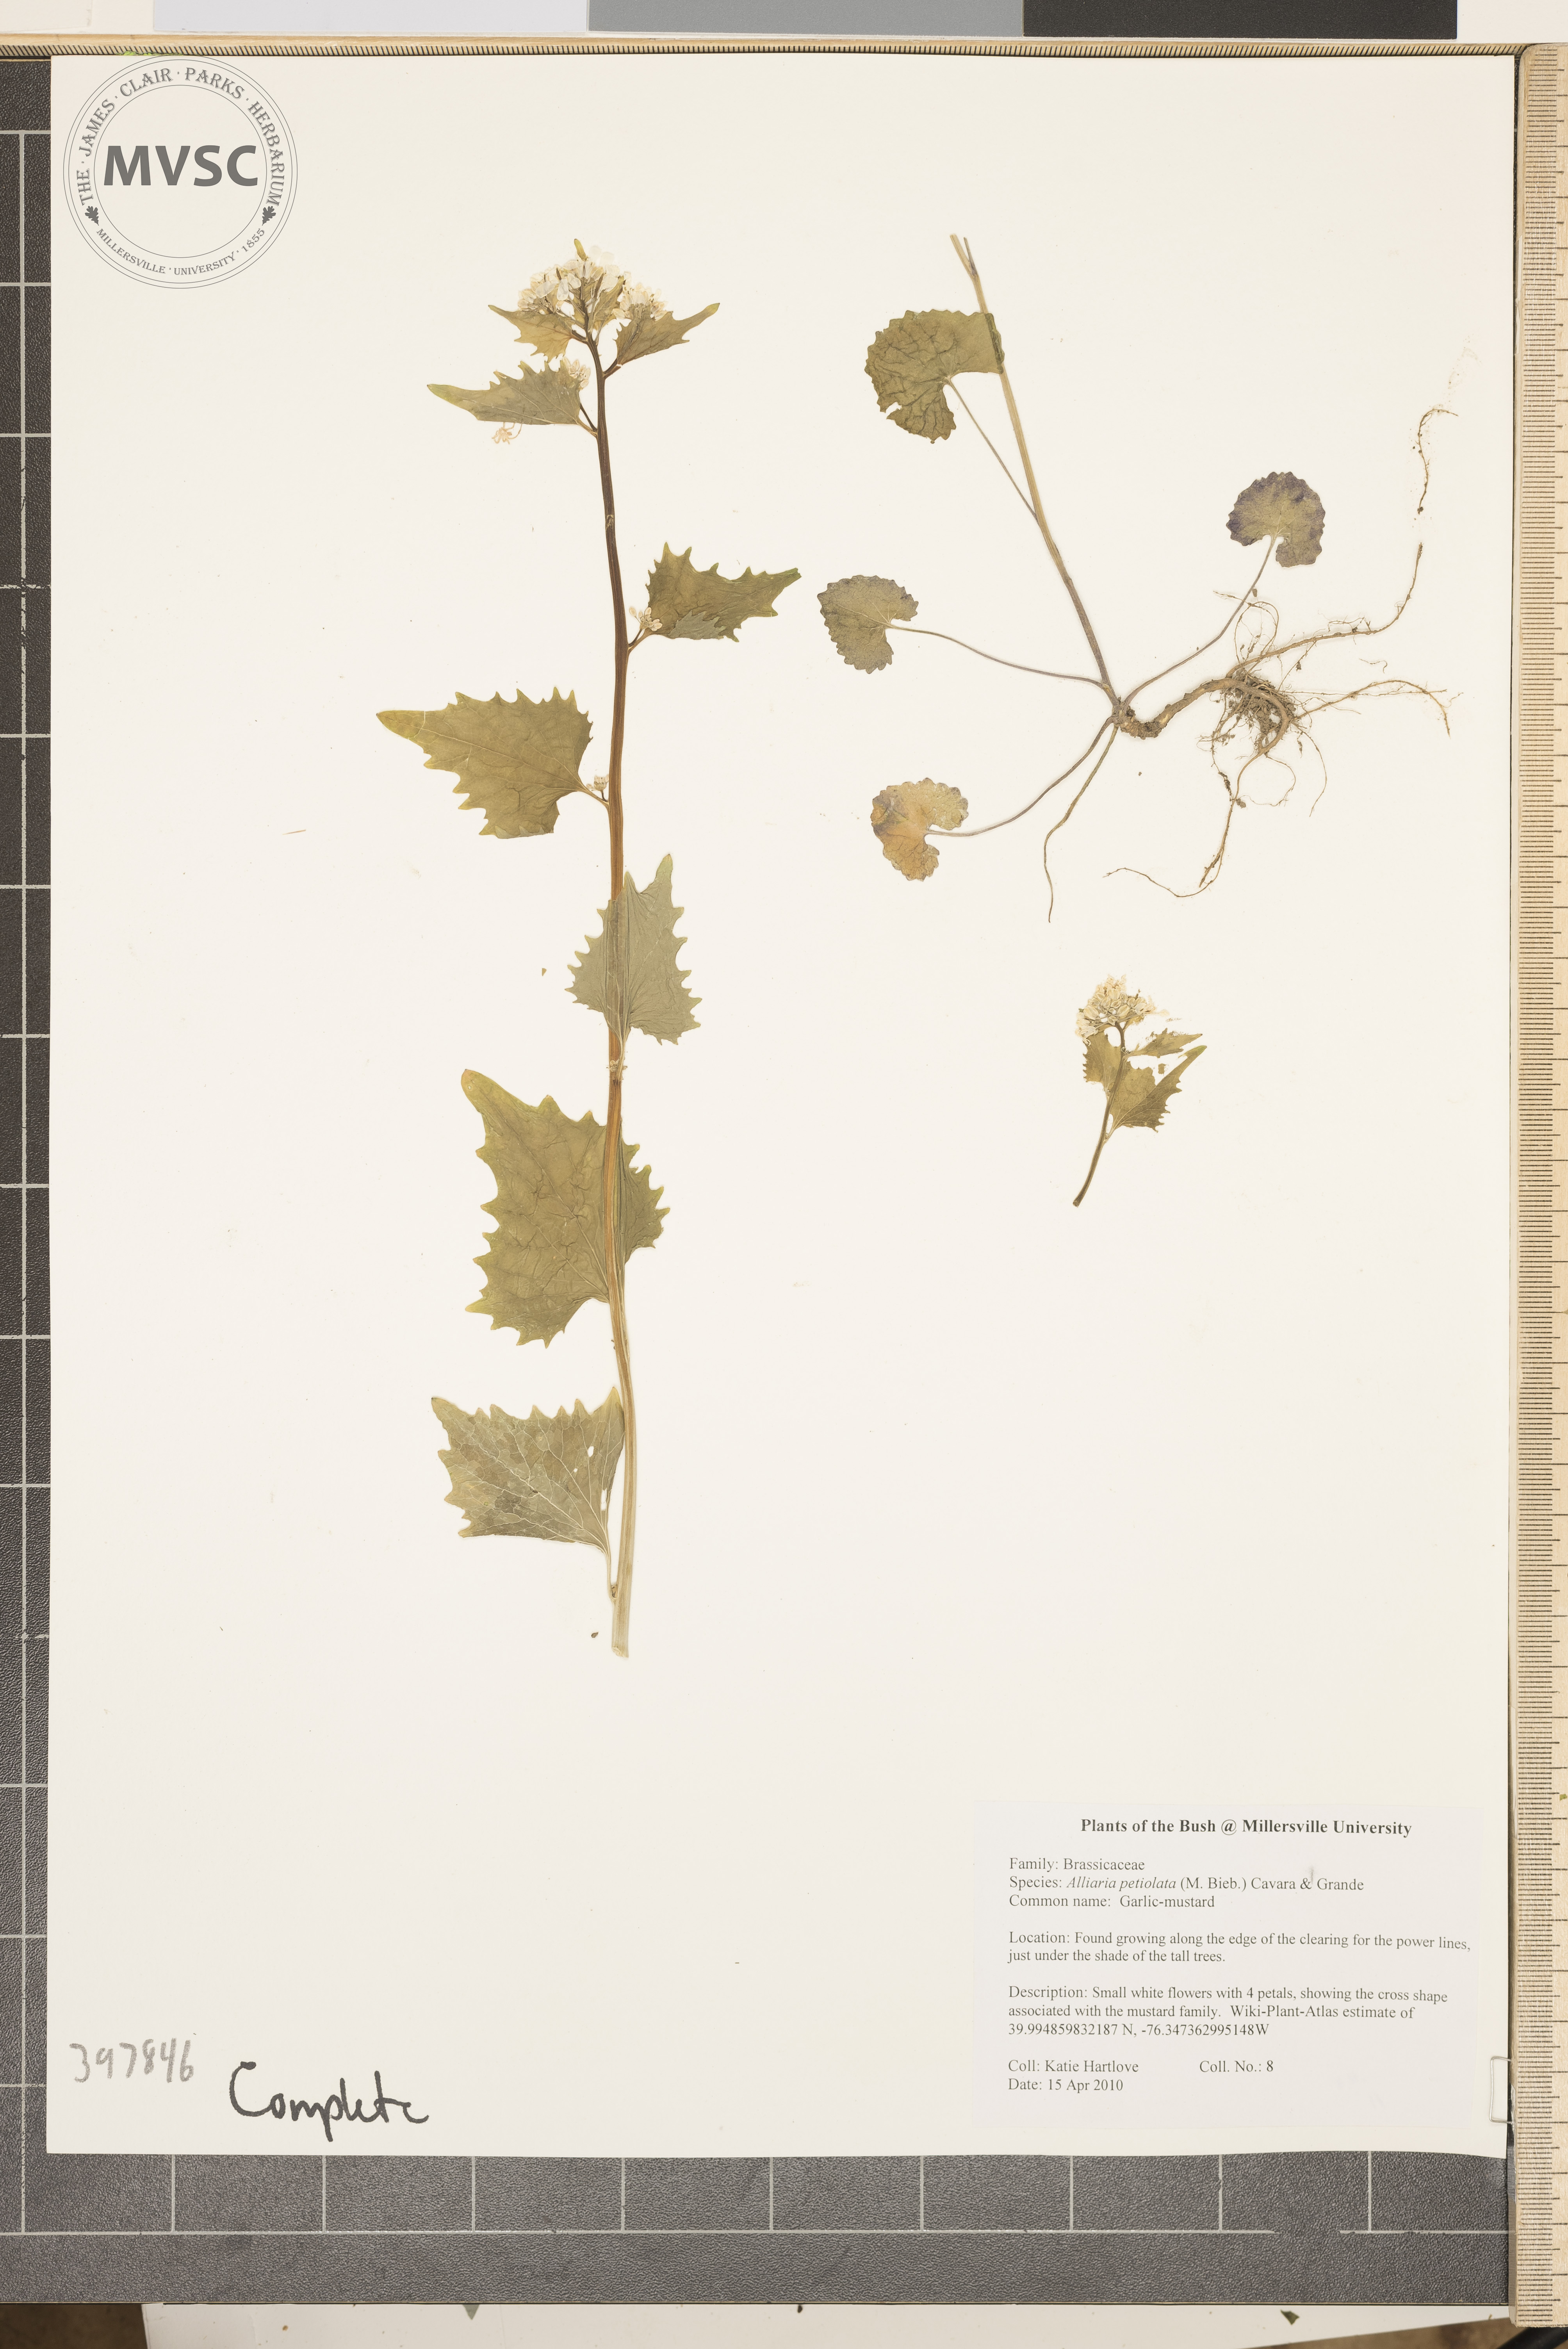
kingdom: Plantae
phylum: Tracheophyta
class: Magnoliopsida
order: Brassicales
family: Brassicaceae
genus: Alliaria
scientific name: Alliaria petiolata
